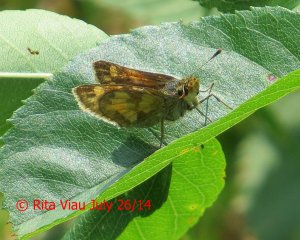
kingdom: Animalia
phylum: Arthropoda
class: Insecta
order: Lepidoptera
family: Hesperiidae
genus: Polites
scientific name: Polites coras
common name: Peck's Skipper
